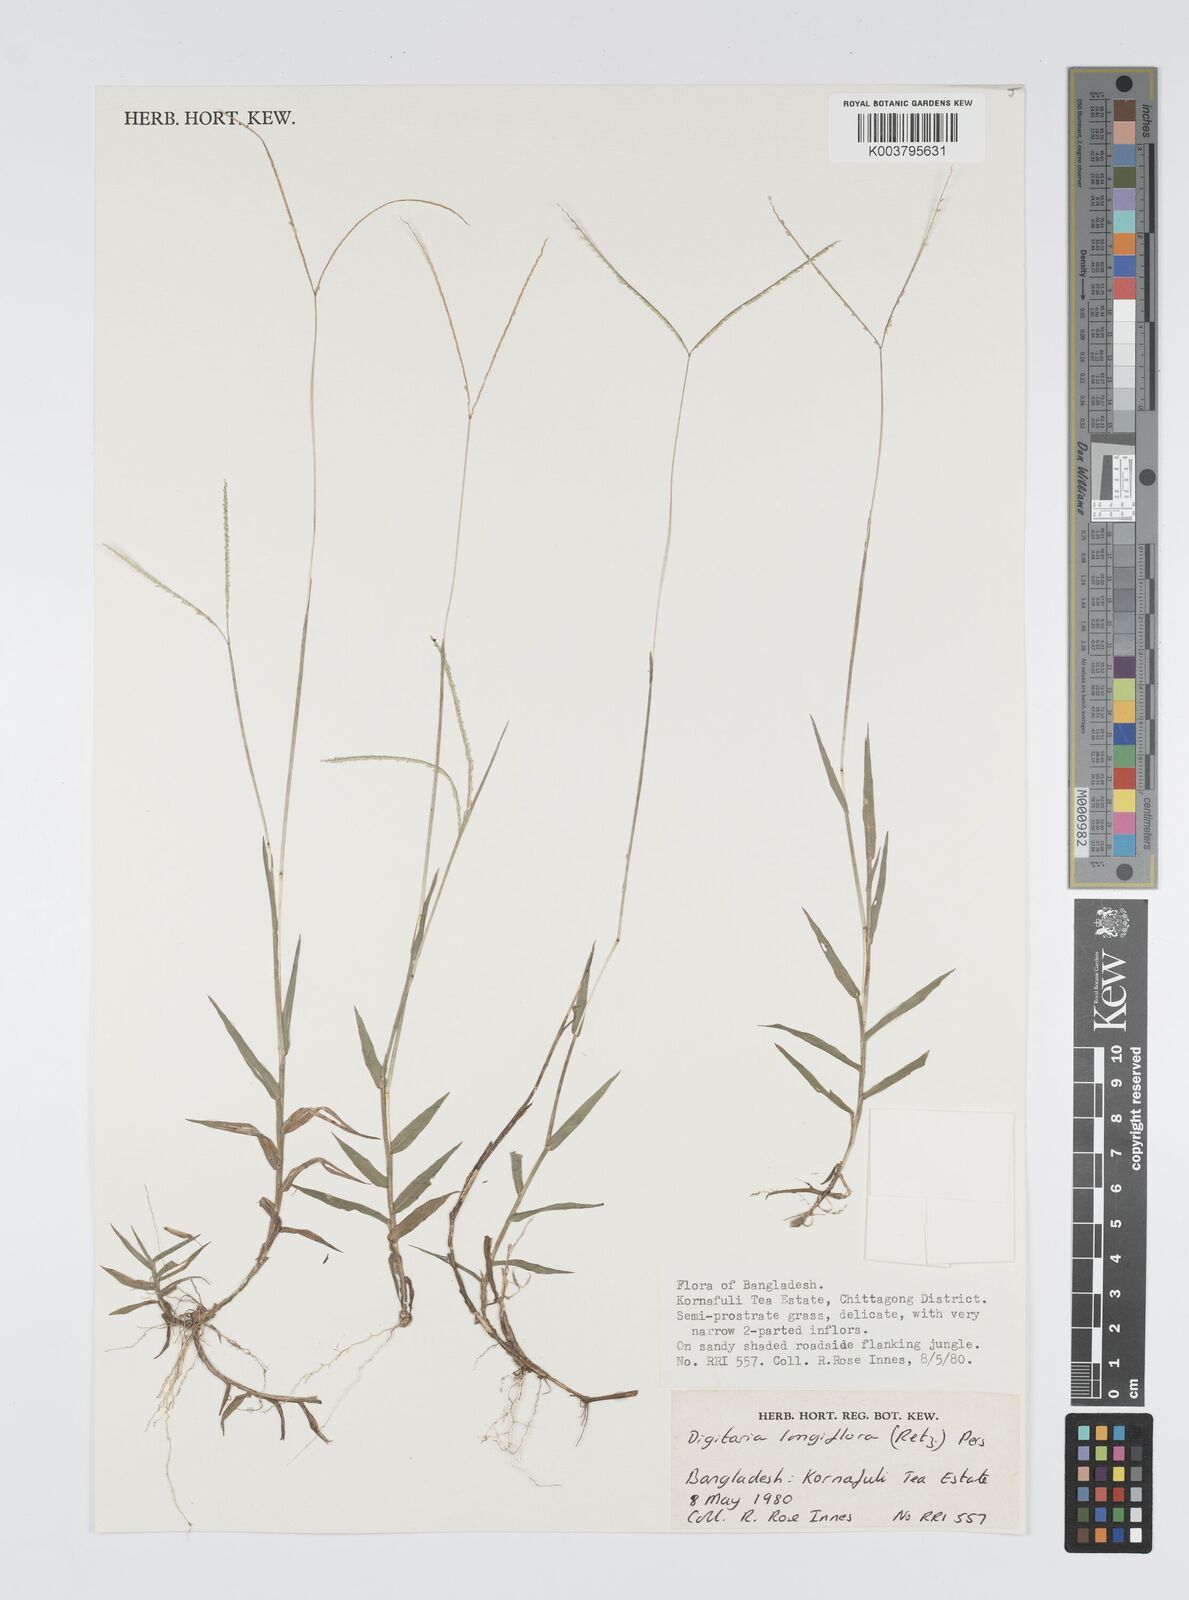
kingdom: Plantae
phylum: Tracheophyta
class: Liliopsida
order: Poales
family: Poaceae
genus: Digitaria
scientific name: Digitaria longiflora
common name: Wire crabgrass
